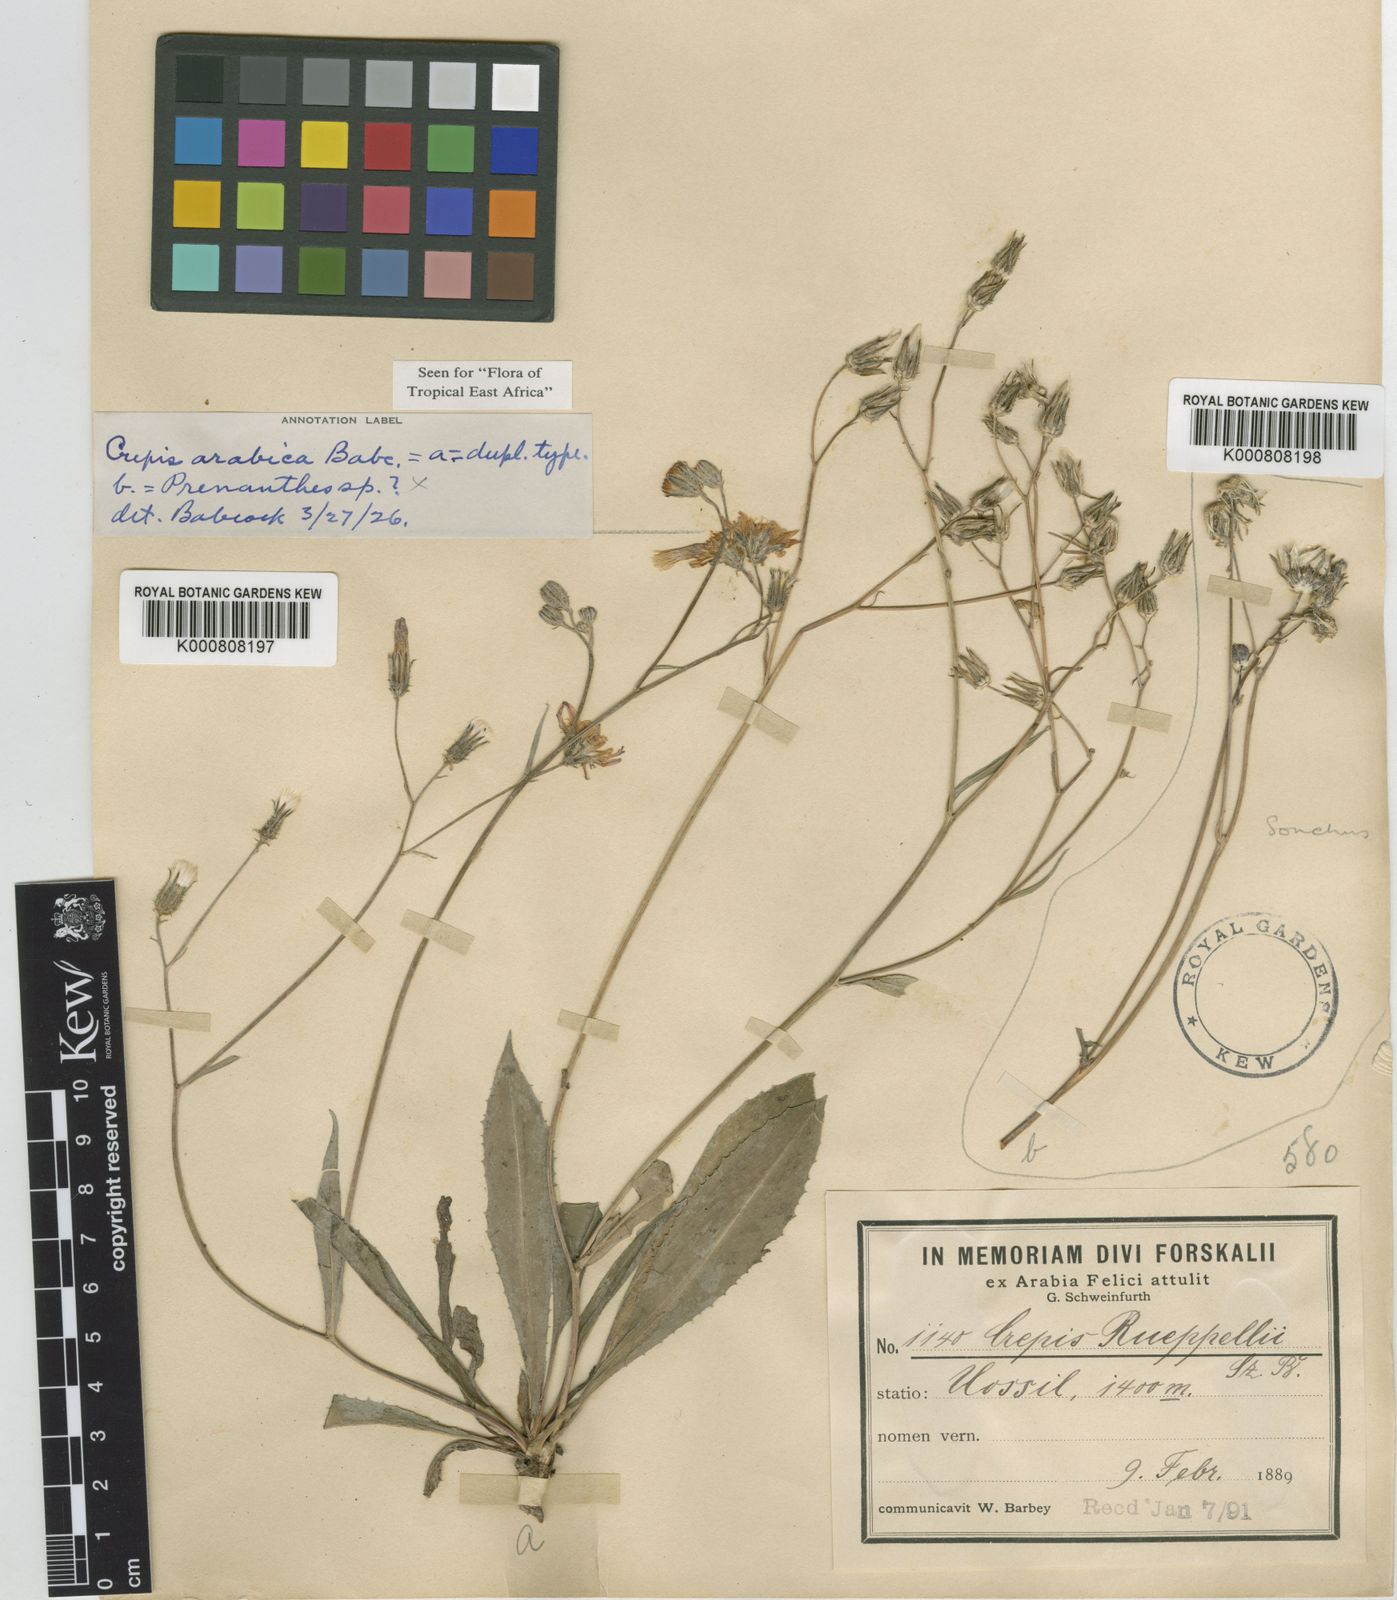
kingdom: Plantae
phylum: Tracheophyta
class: Magnoliopsida
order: Asterales
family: Asteraceae
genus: Crepis
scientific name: Crepis rueppellii
